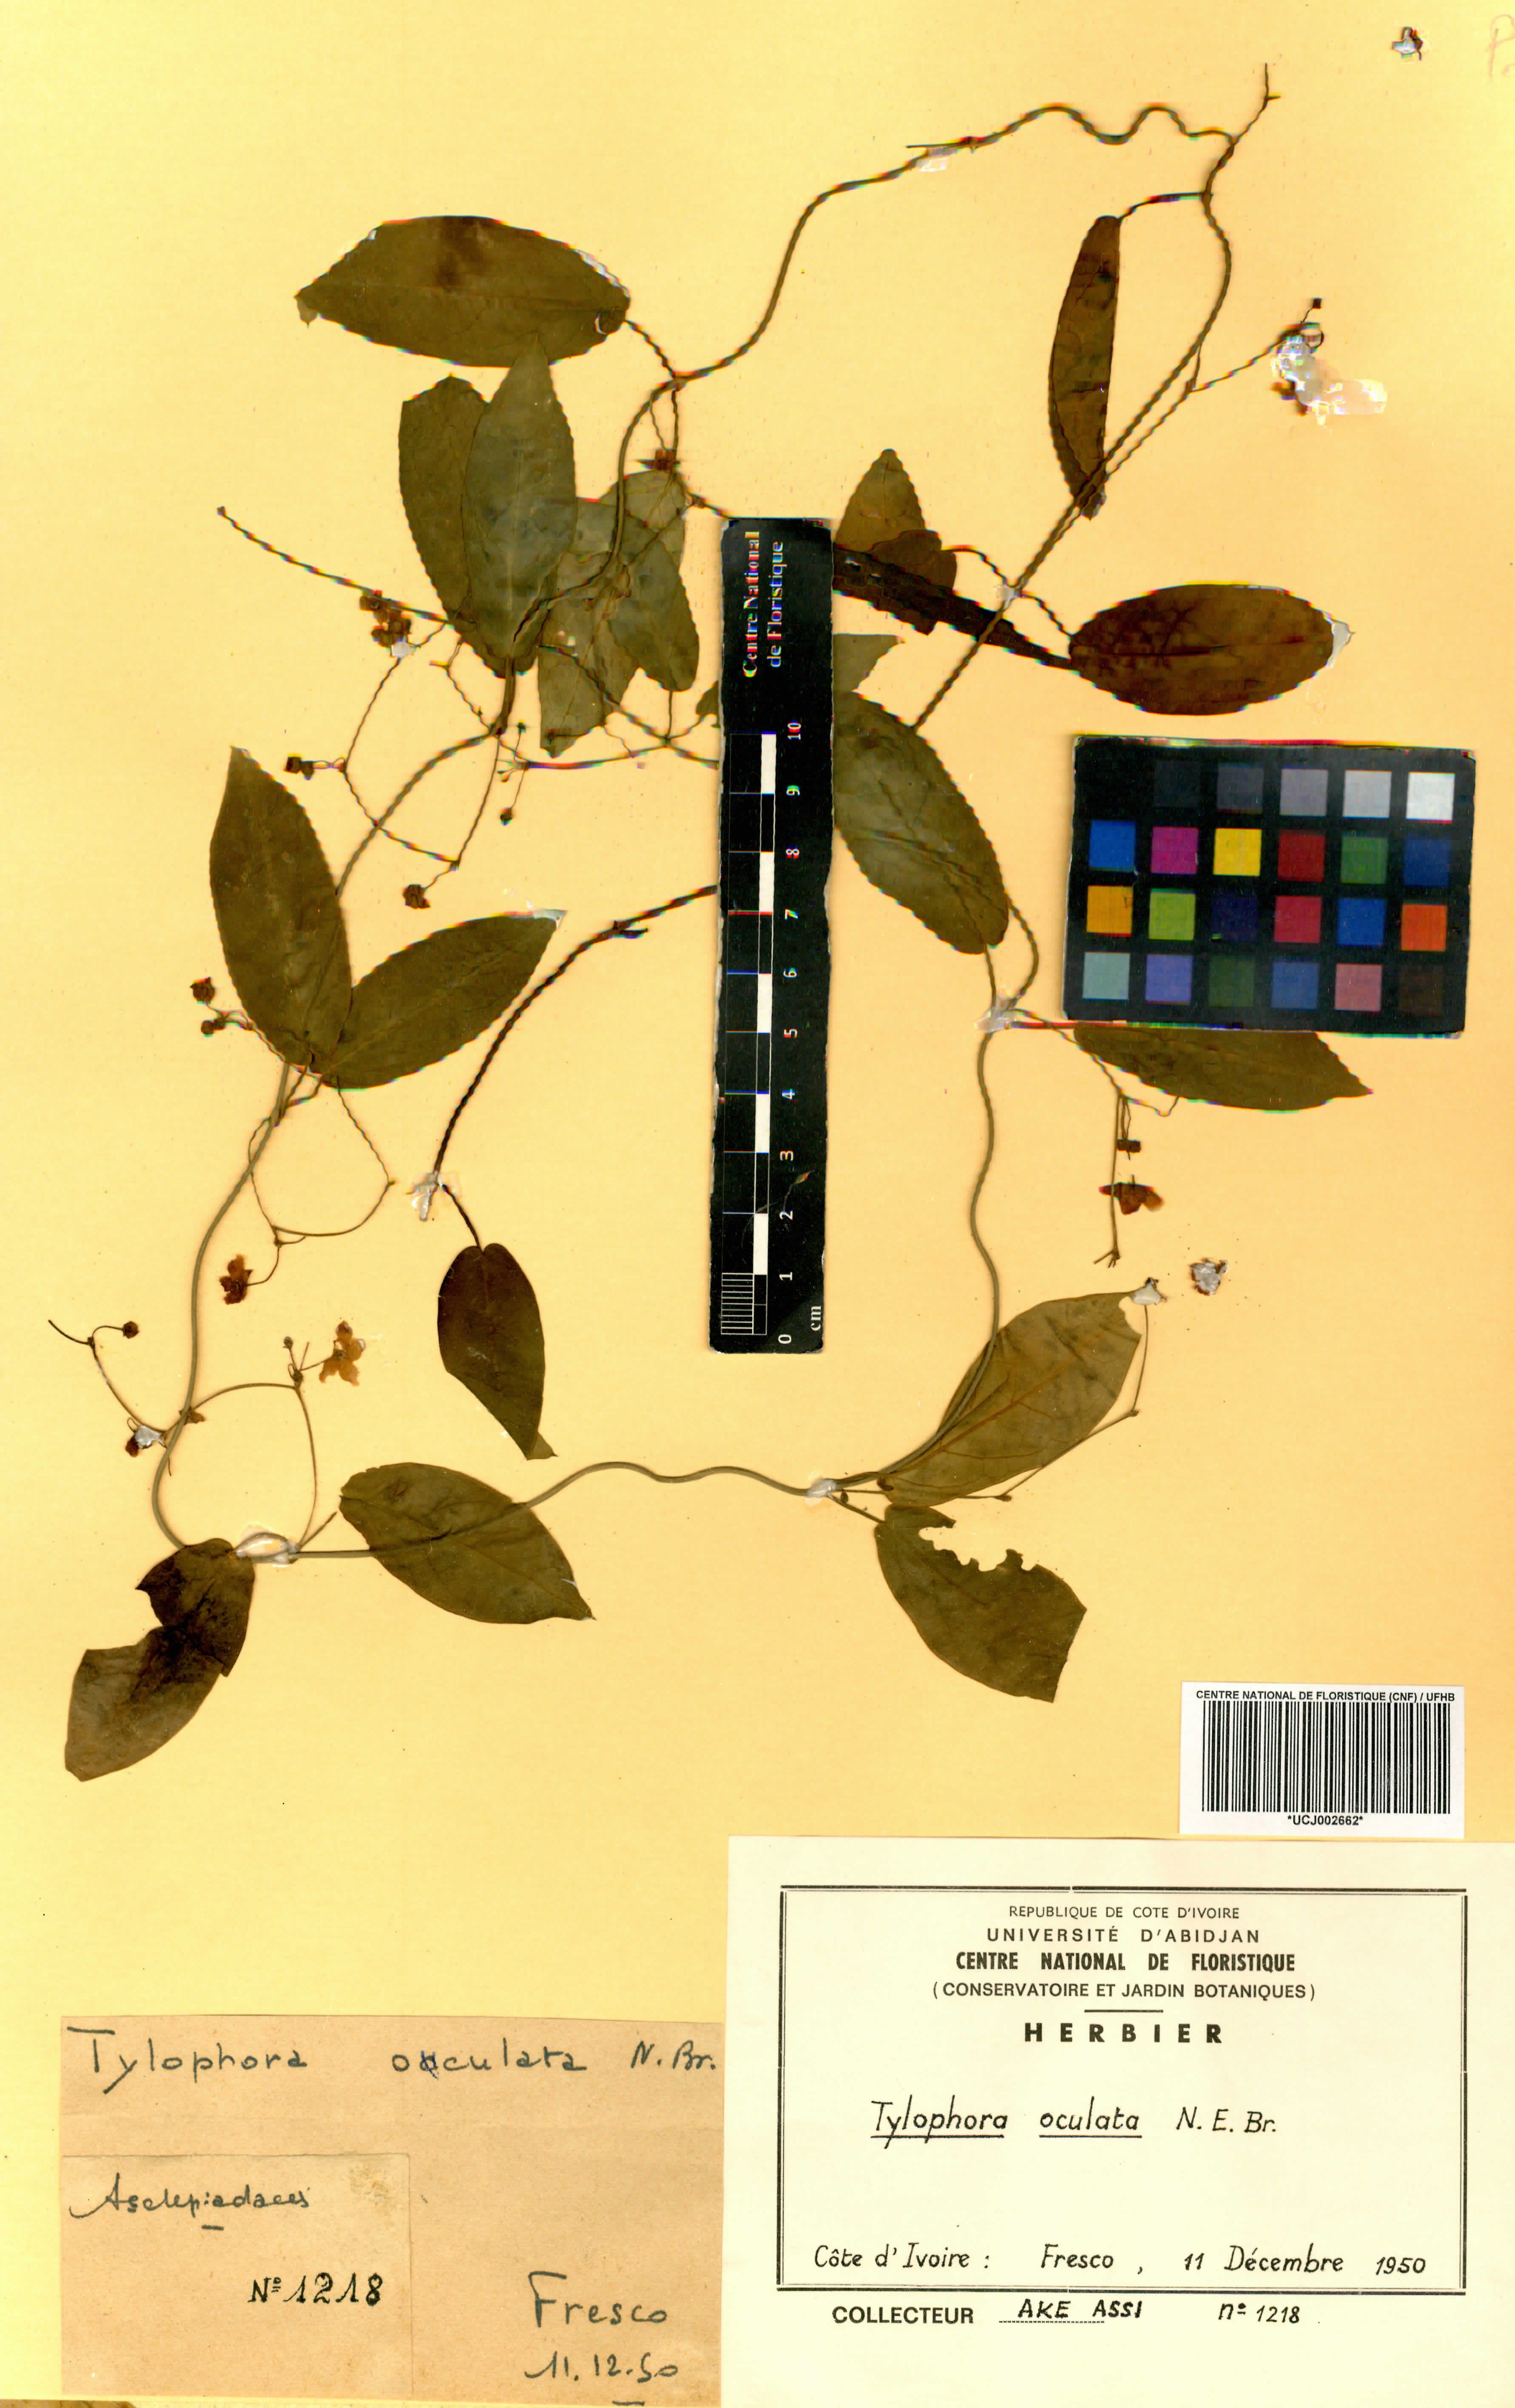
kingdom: Plantae
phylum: Tracheophyta
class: Magnoliopsida
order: Gentianales
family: Apocynaceae
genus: Vincetoxicum
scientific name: Vincetoxicum oculatum
